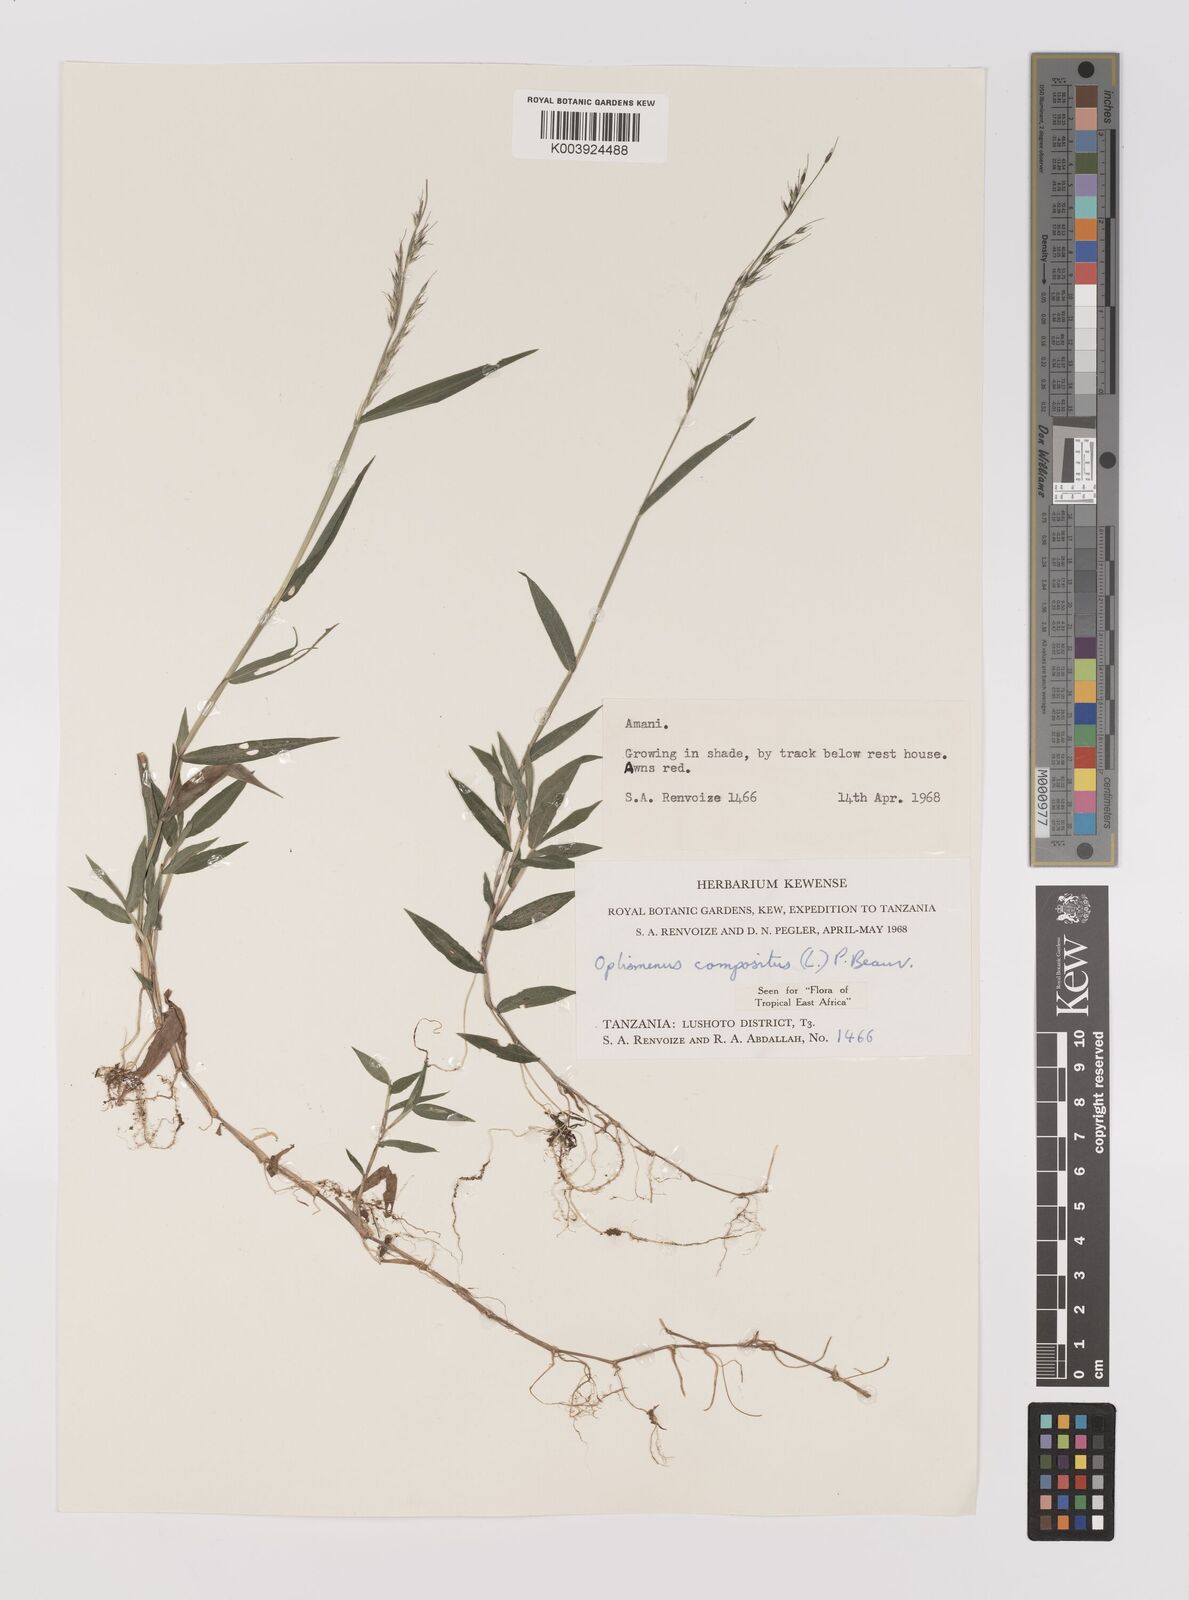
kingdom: Plantae
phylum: Tracheophyta
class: Liliopsida
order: Poales
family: Poaceae
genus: Oplismenus
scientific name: Oplismenus compositus
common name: Running mountain grass
